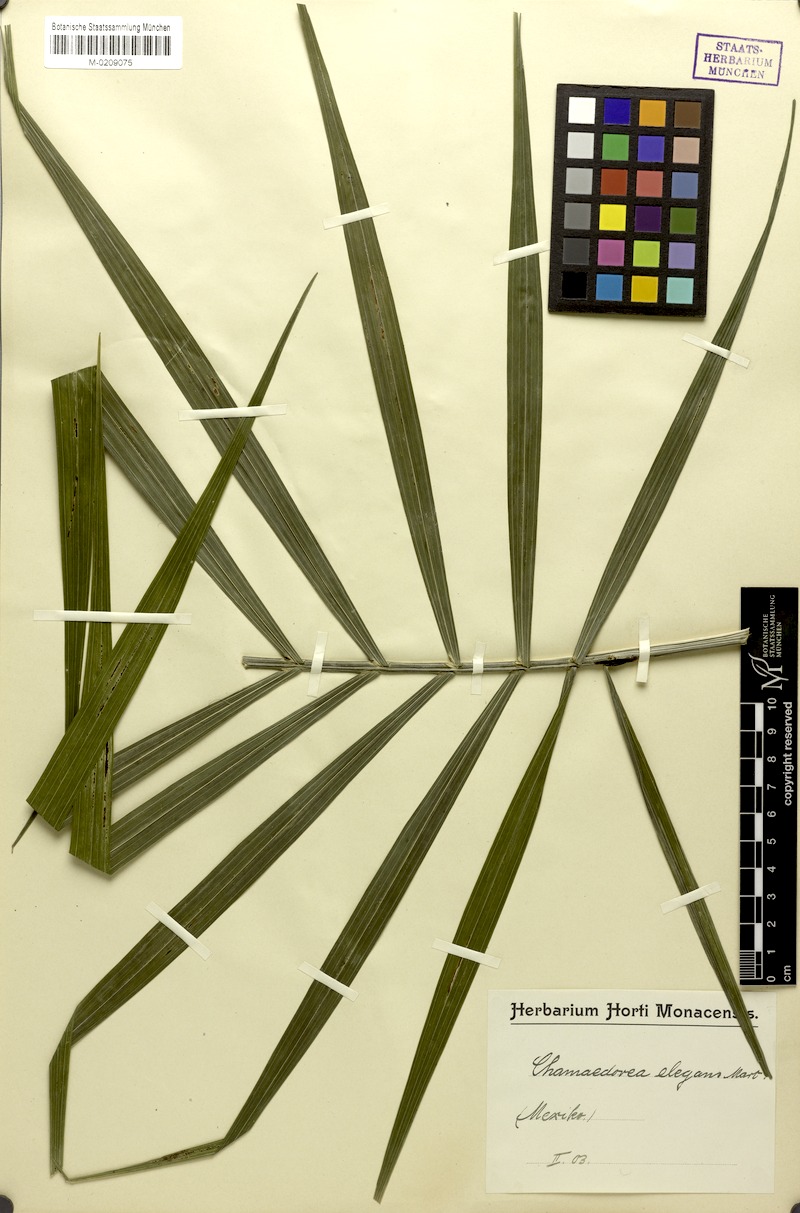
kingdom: Plantae
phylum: Tracheophyta
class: Liliopsida
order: Arecales
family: Arecaceae
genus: Chamaedorea
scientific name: Chamaedorea elegans
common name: Good-luck palm
